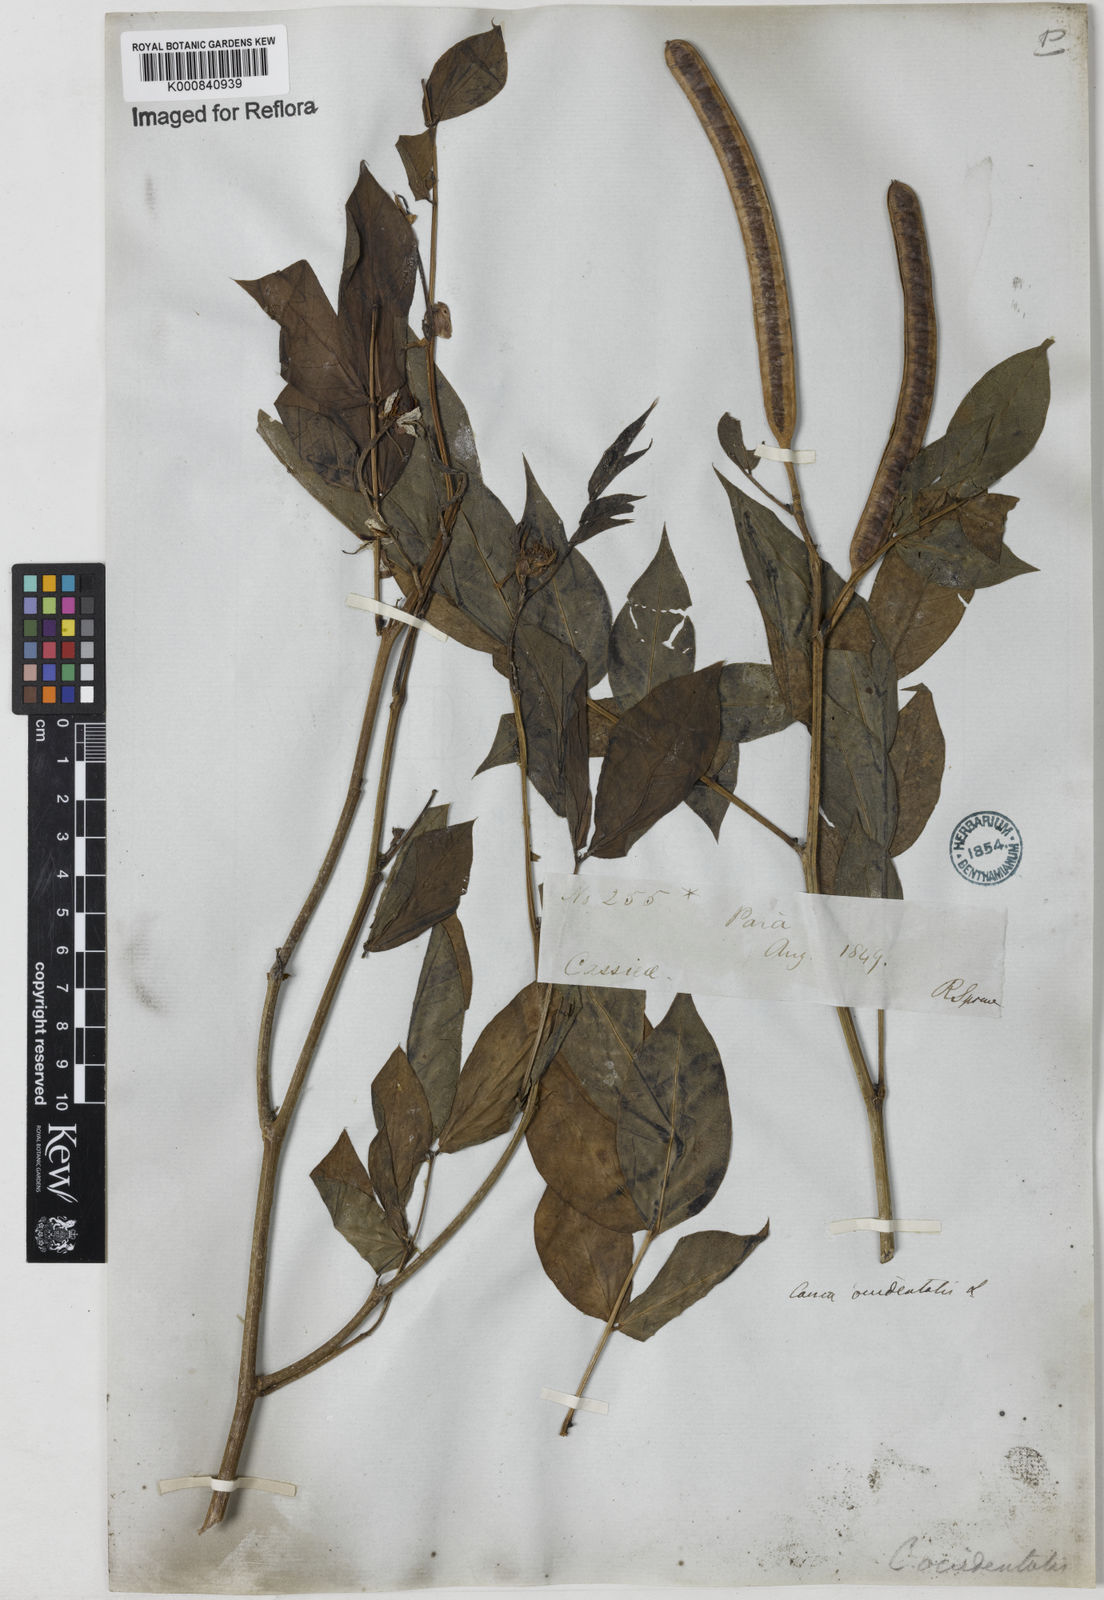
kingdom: Plantae
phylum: Tracheophyta
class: Magnoliopsida
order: Fabales
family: Fabaceae
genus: Senna
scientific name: Senna occidentalis
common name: Septicweed
